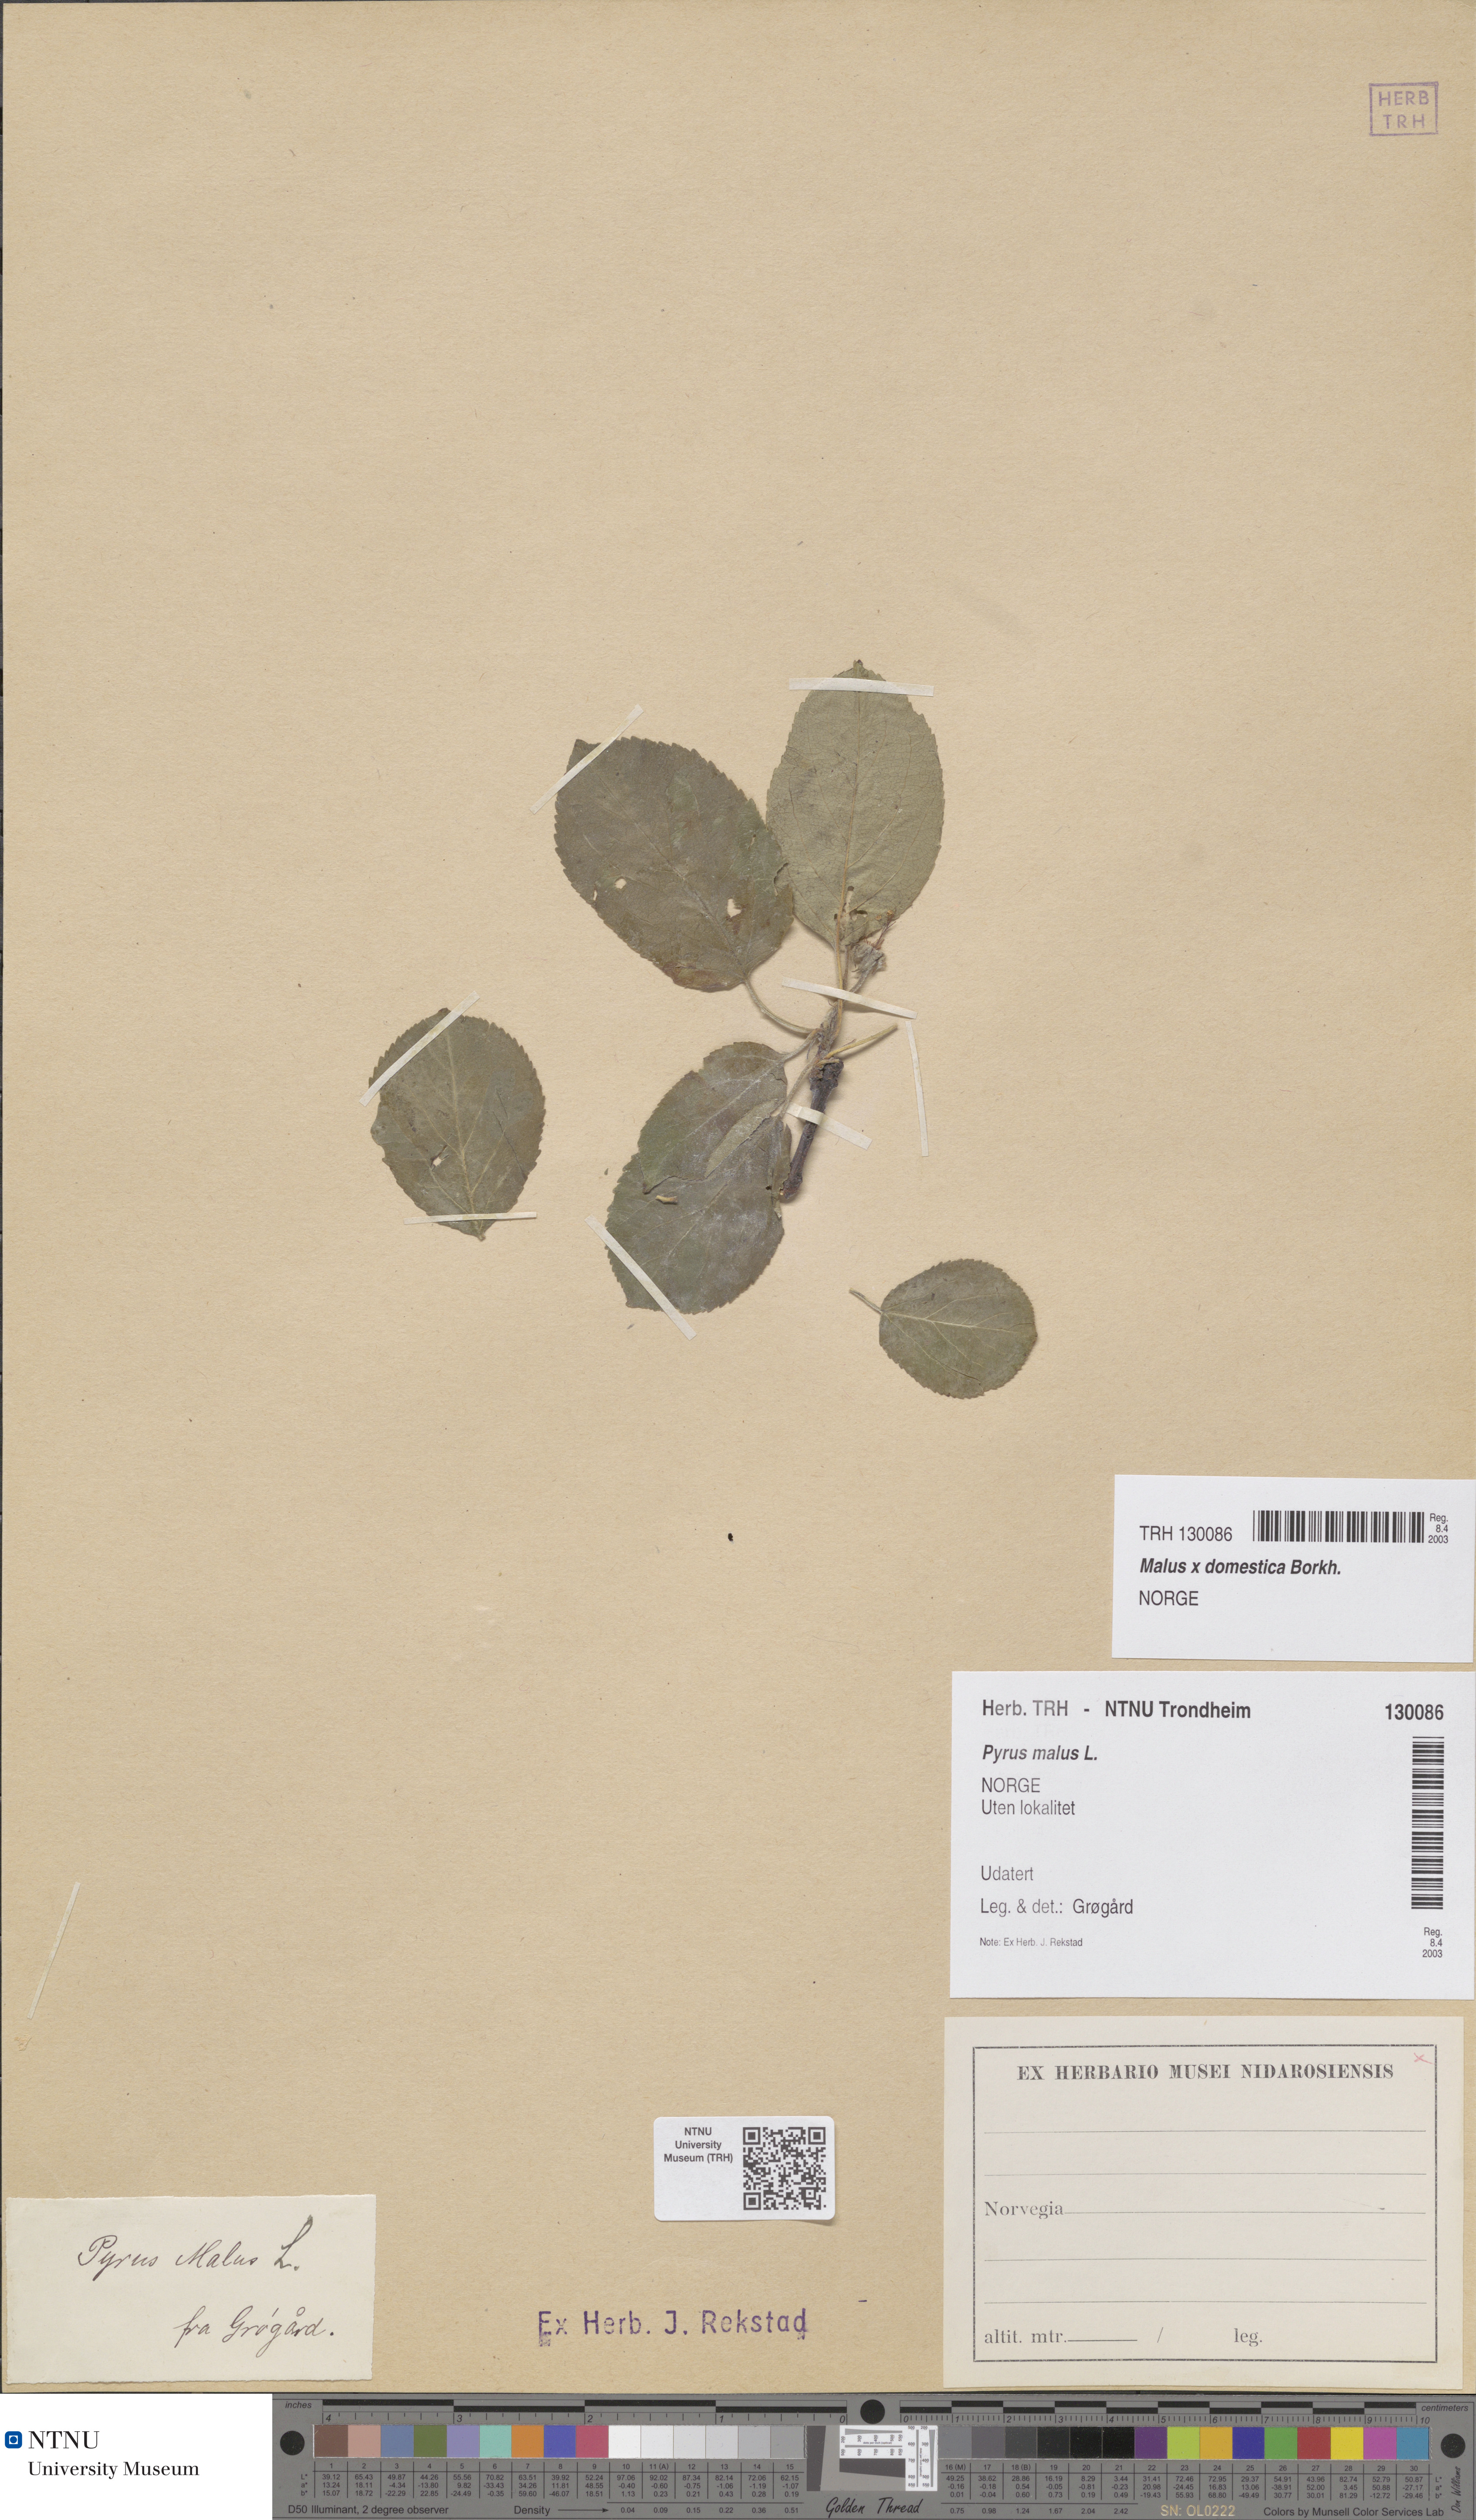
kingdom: Plantae
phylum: Tracheophyta
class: Magnoliopsida
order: Rosales
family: Rosaceae
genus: Malus
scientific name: Malus domestica
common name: Apple
